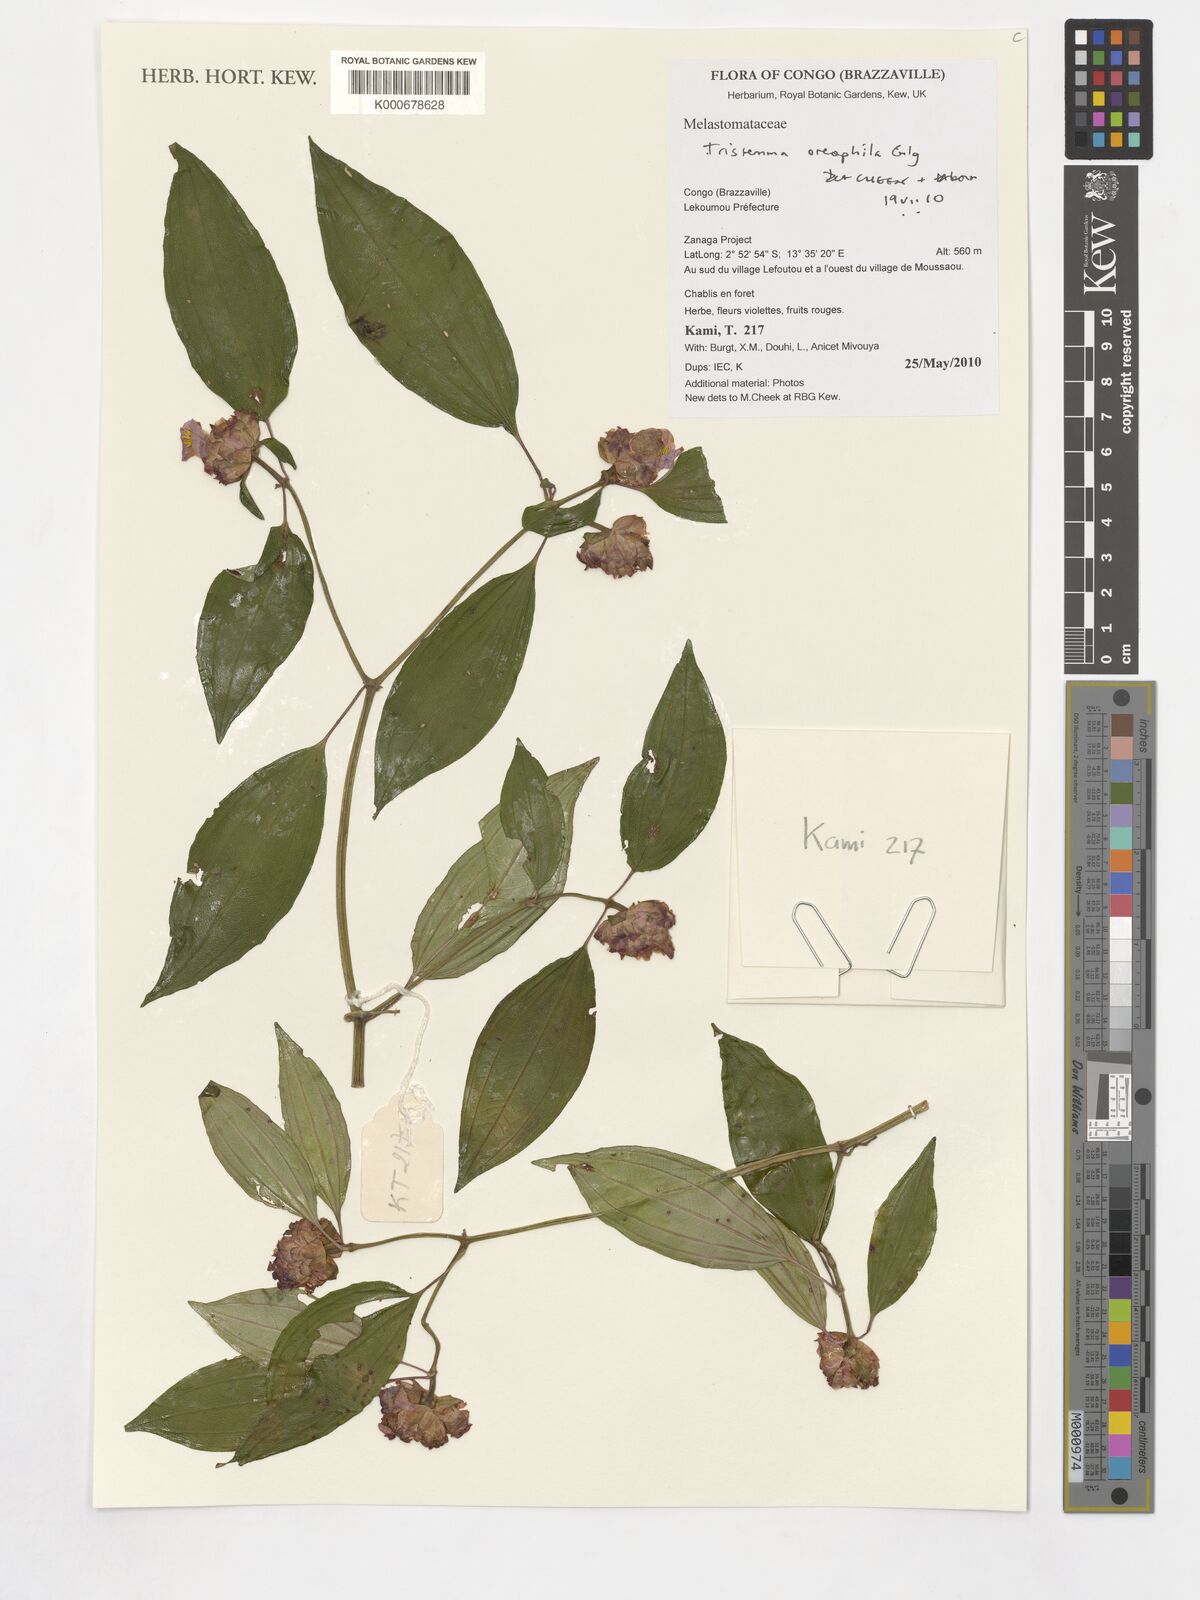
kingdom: Plantae
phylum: Tracheophyta
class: Magnoliopsida
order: Myrtales
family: Melastomataceae
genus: Tristemma
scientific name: Tristemma oreophilum
